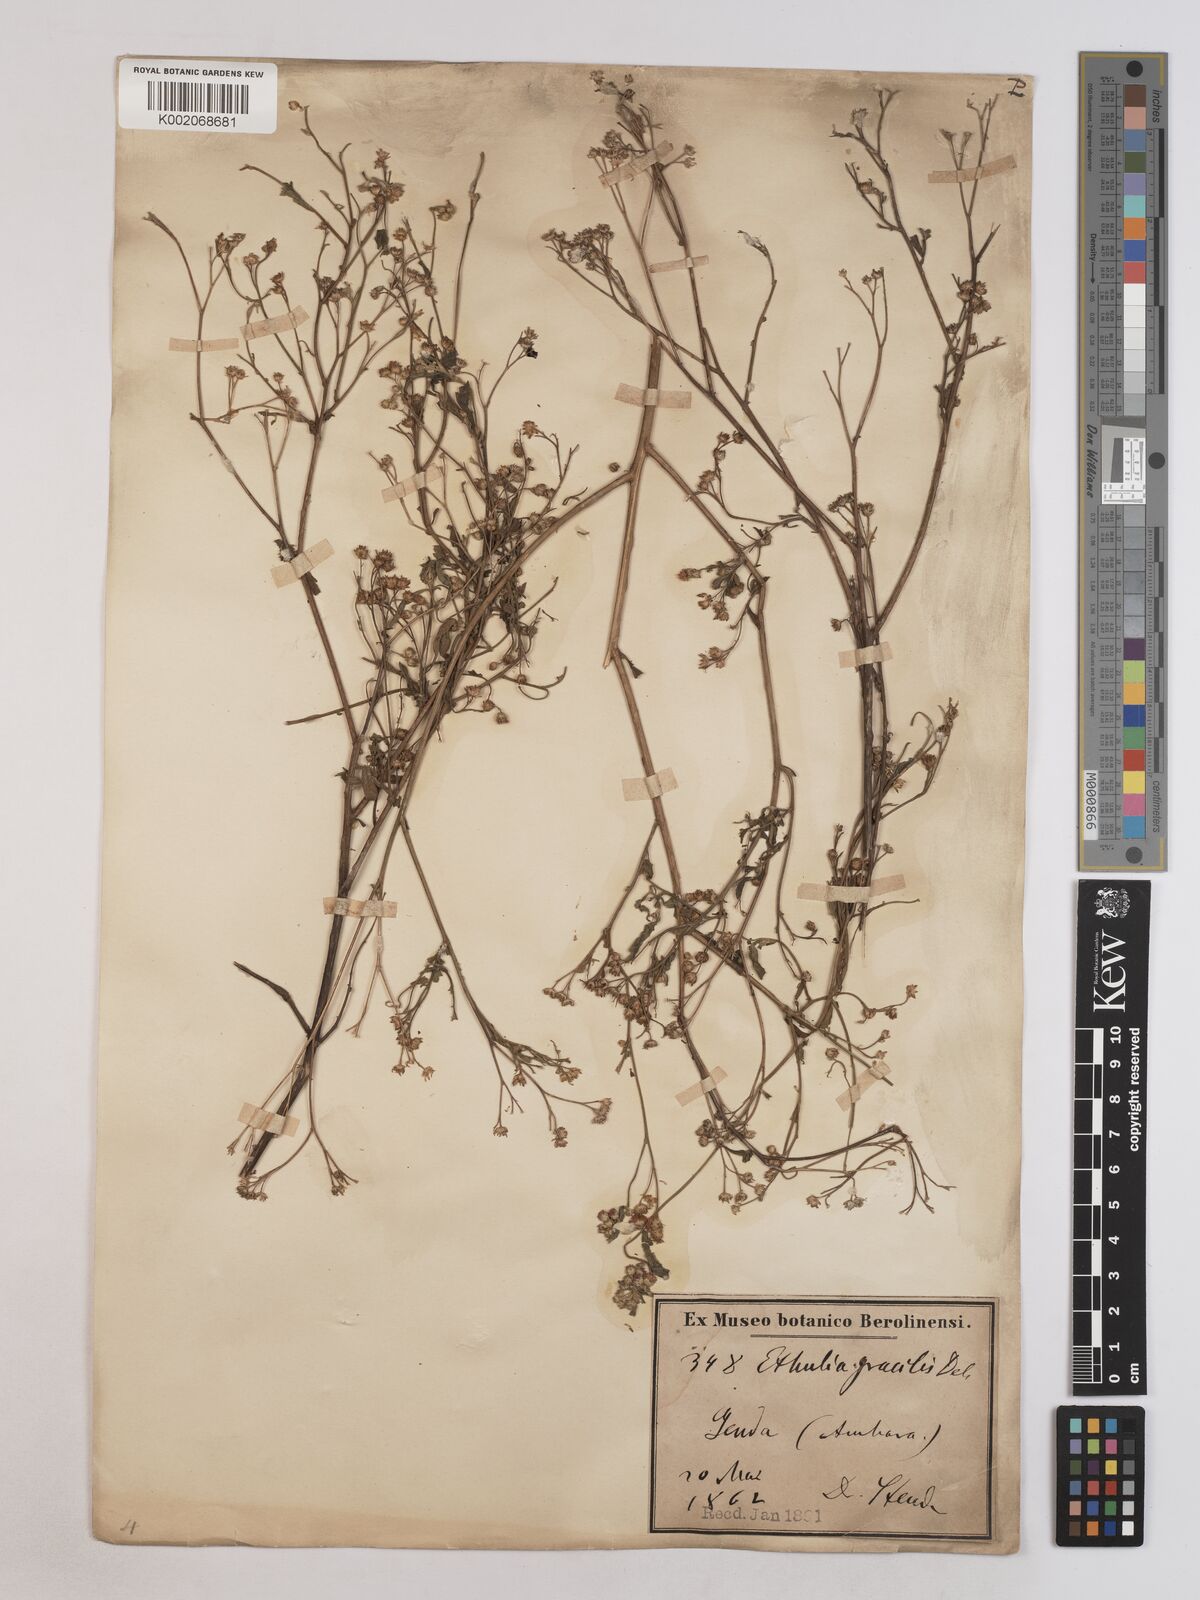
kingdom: Plantae
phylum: Tracheophyta
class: Magnoliopsida
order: Asterales
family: Asteraceae
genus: Ethulia
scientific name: Ethulia gracilis
